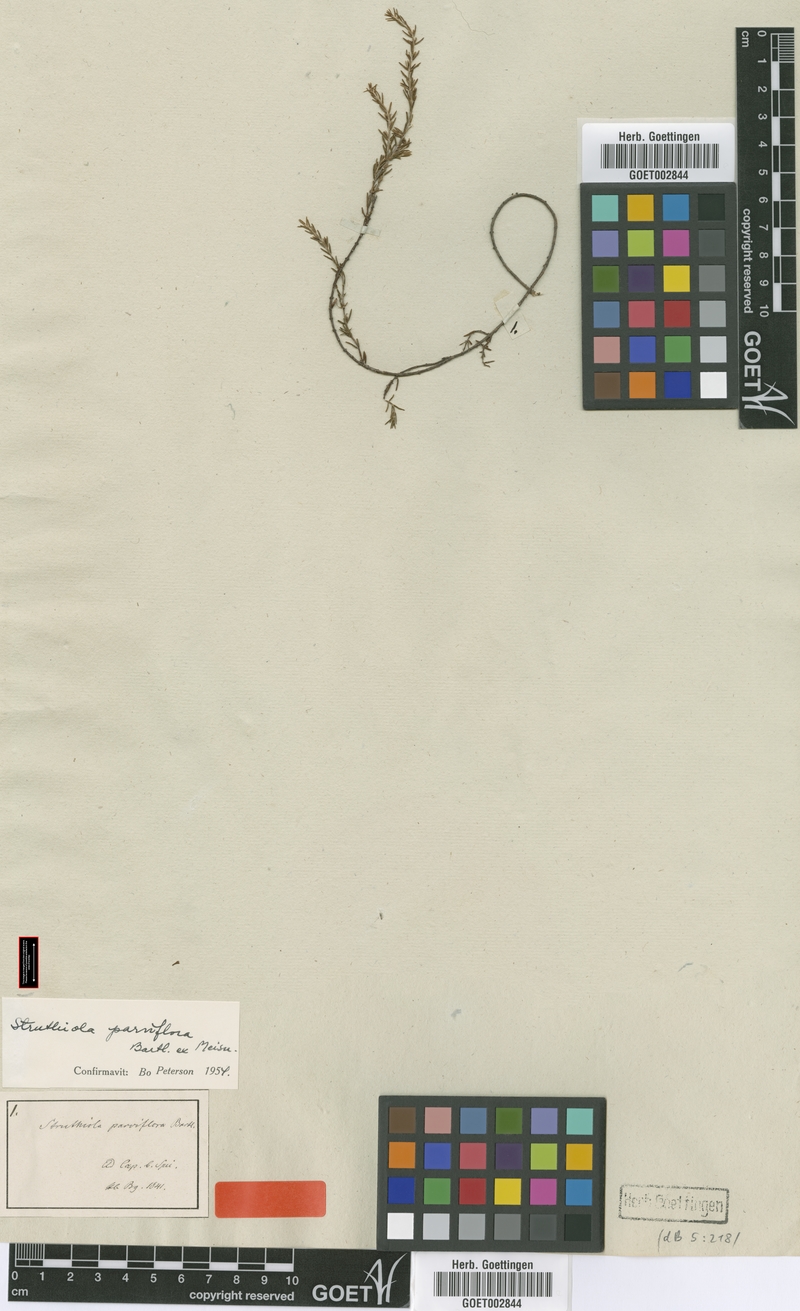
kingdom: Plantae
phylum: Tracheophyta
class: Magnoliopsida
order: Malvales
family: Thymelaeaceae
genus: Struthiola
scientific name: Struthiola parviflora
